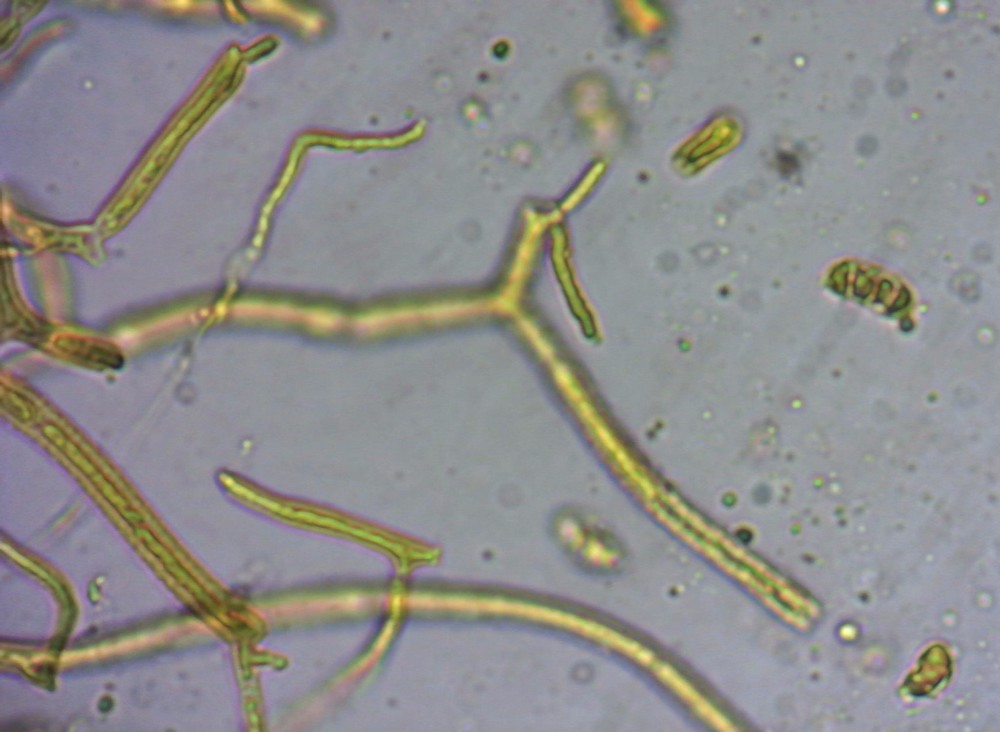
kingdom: Fungi
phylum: Basidiomycota
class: Dacrymycetes
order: Dacrymycetales
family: Dacrymycetaceae
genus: Dacrymyces
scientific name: Dacrymyces minor
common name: lille tåresvamp
